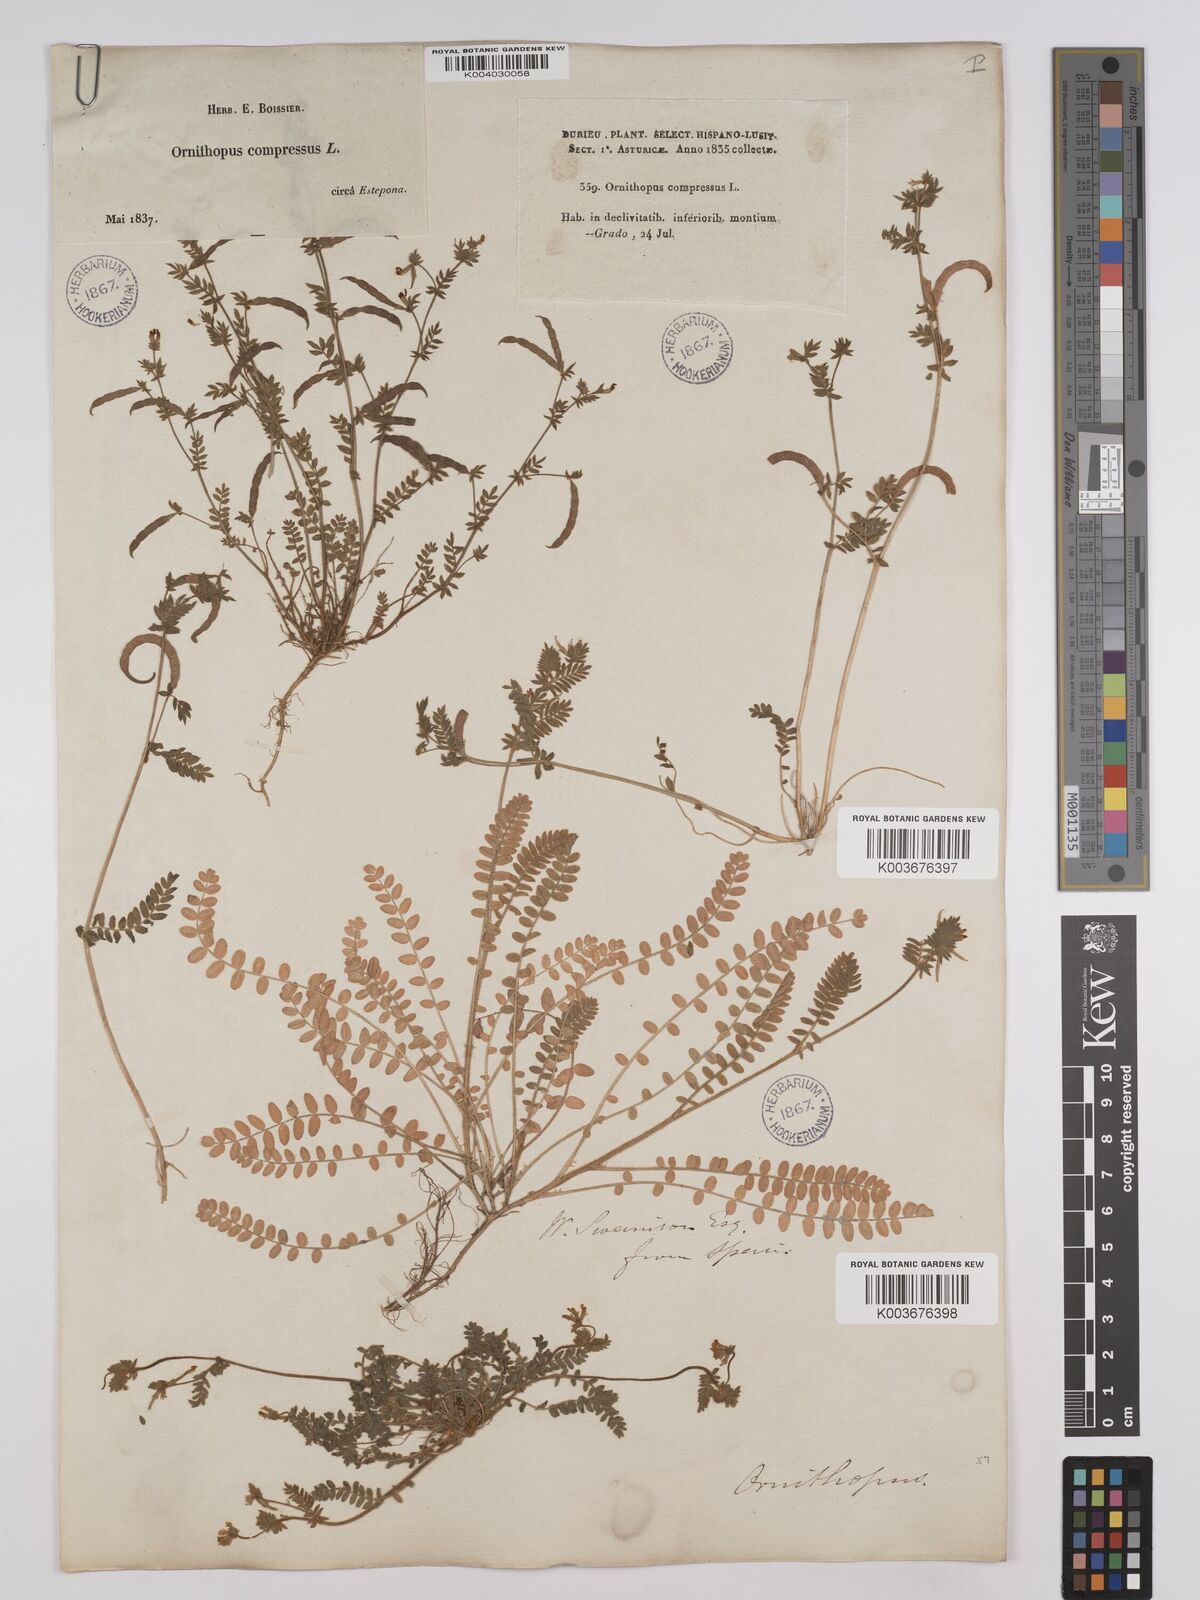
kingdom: Plantae
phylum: Tracheophyta
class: Magnoliopsida
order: Fabales
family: Fabaceae
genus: Ornithopus
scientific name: Ornithopus compressus
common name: Yellow serradella
